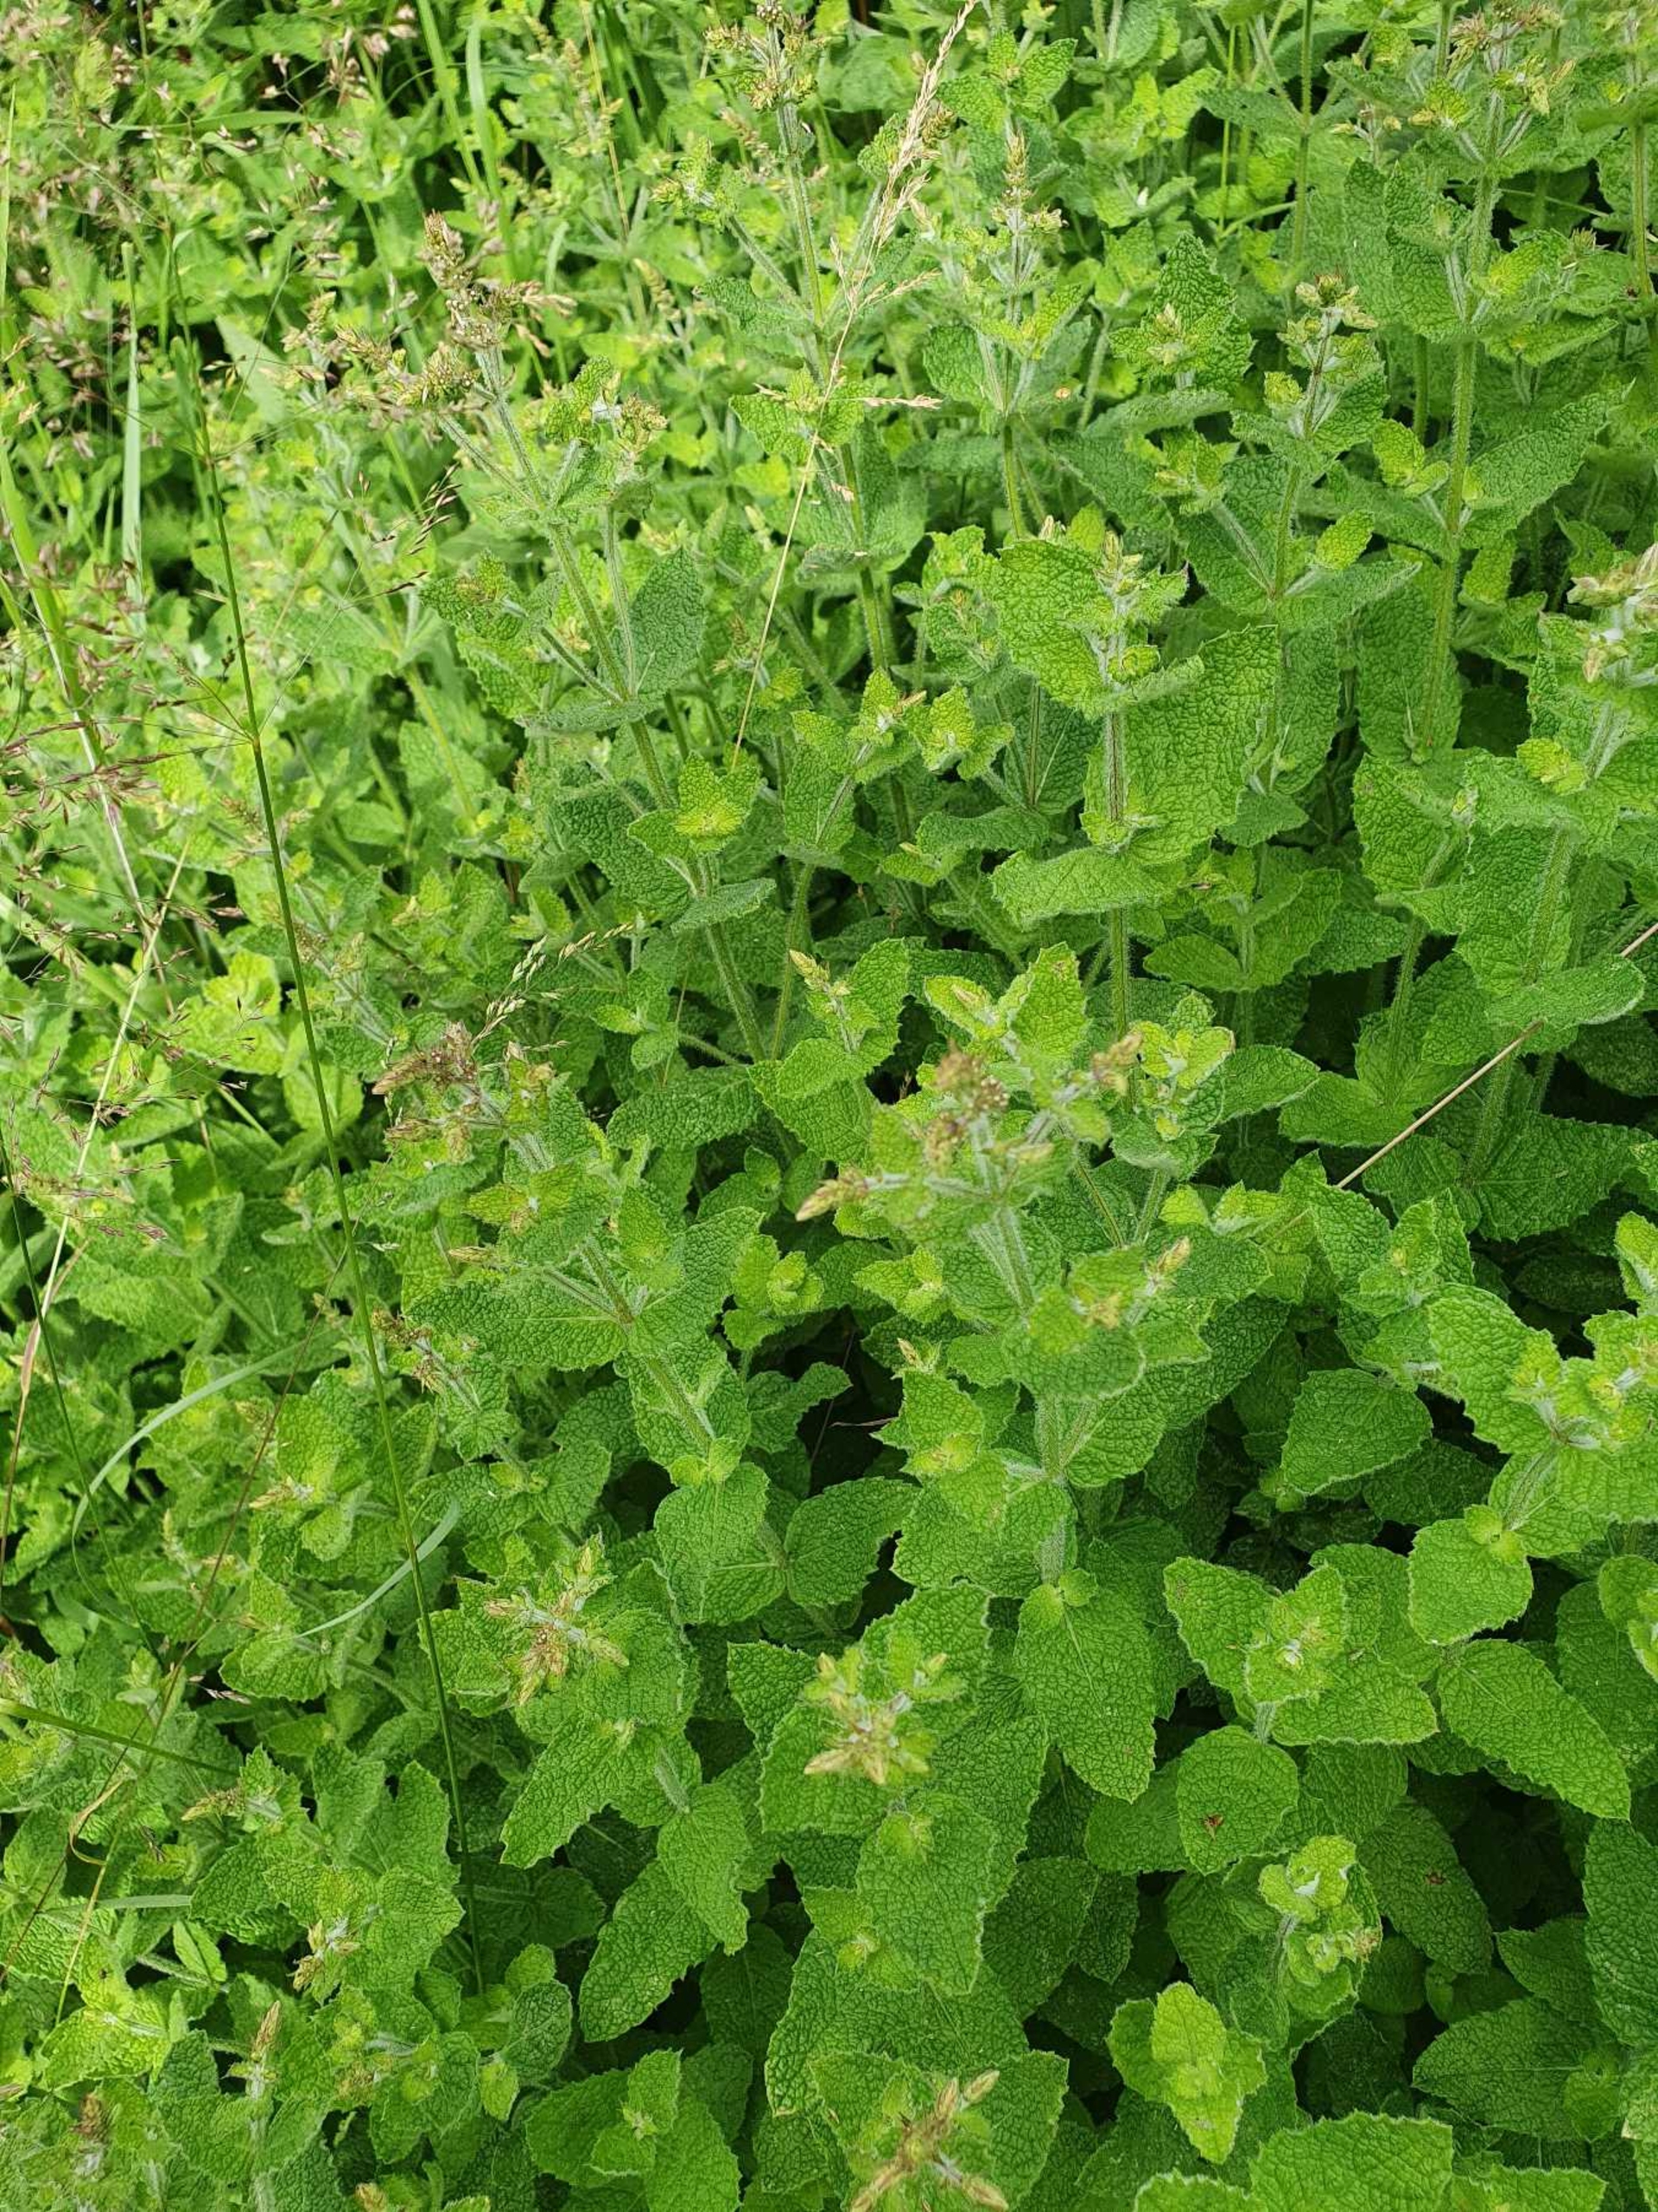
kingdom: Plantae
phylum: Tracheophyta
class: Magnoliopsida
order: Lamiales
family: Lamiaceae
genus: Mentha
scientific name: Mentha rotundifolia
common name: Grå mynte × rundbladet mynte
